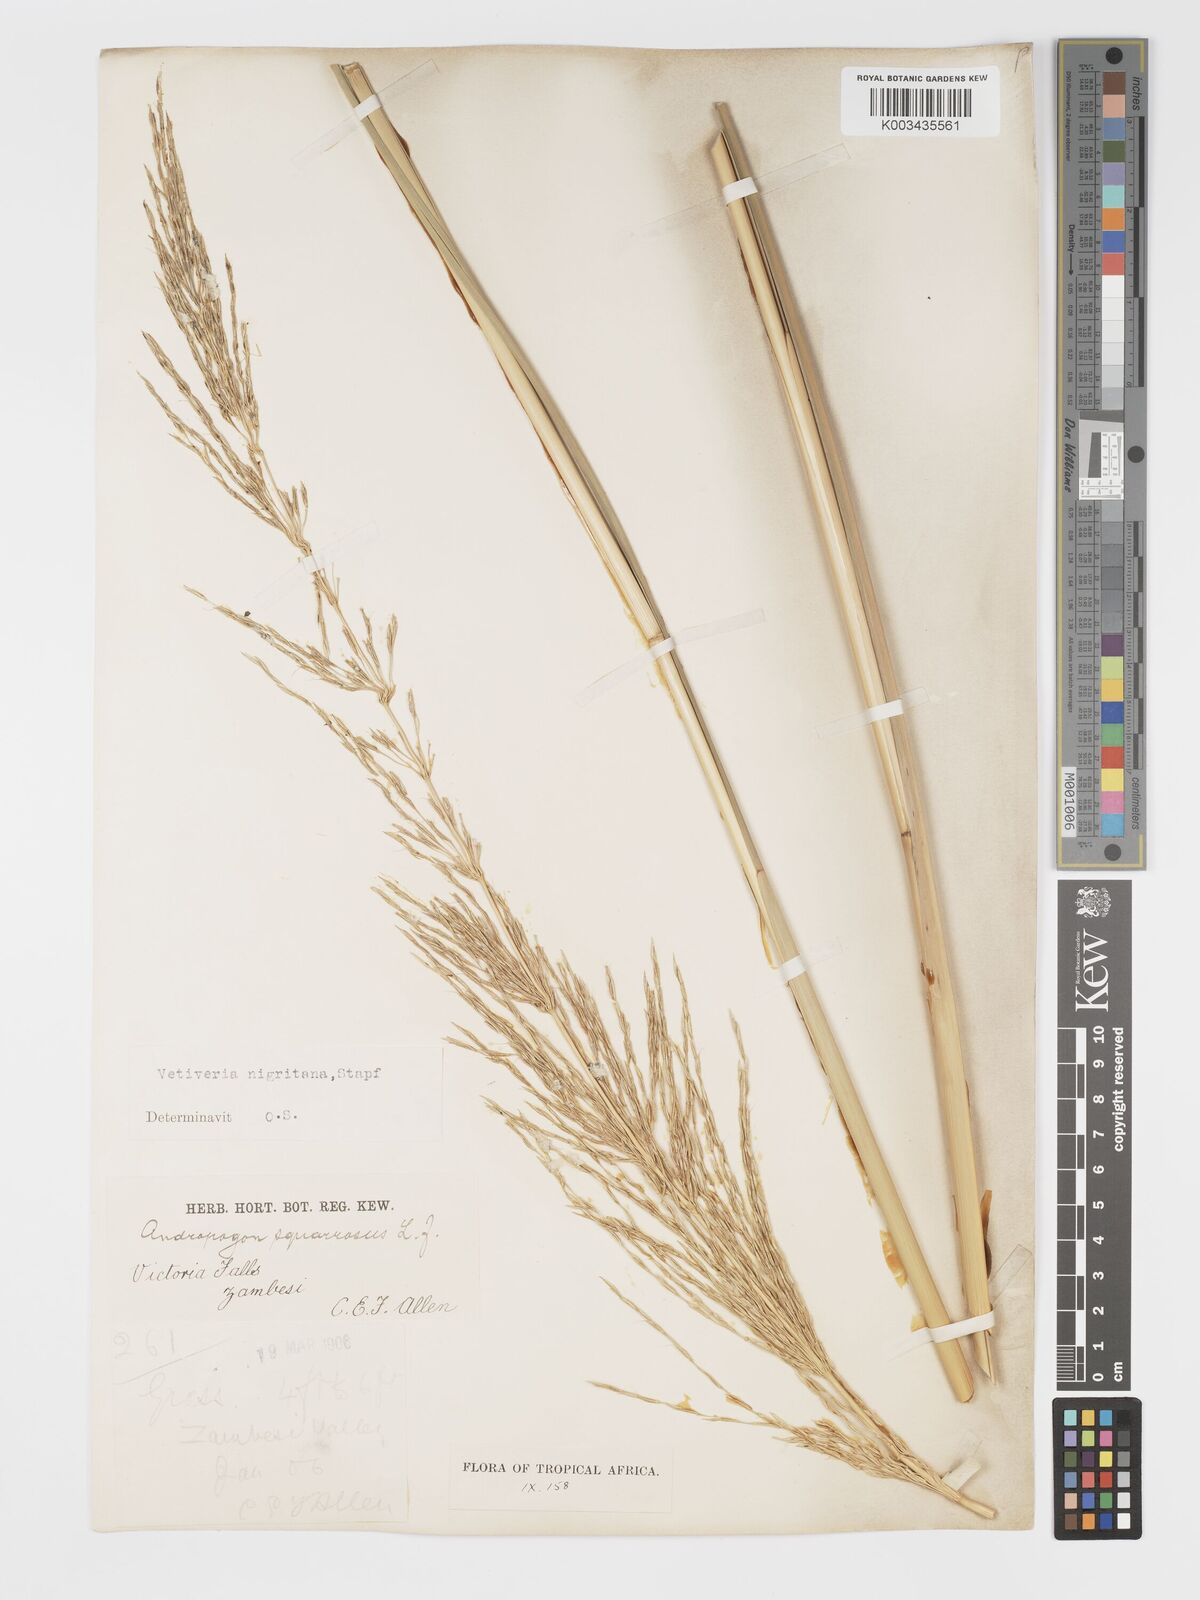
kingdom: Plantae
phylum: Tracheophyta
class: Liliopsida
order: Poales
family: Poaceae
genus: Chrysopogon
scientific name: Chrysopogon nigritanus
